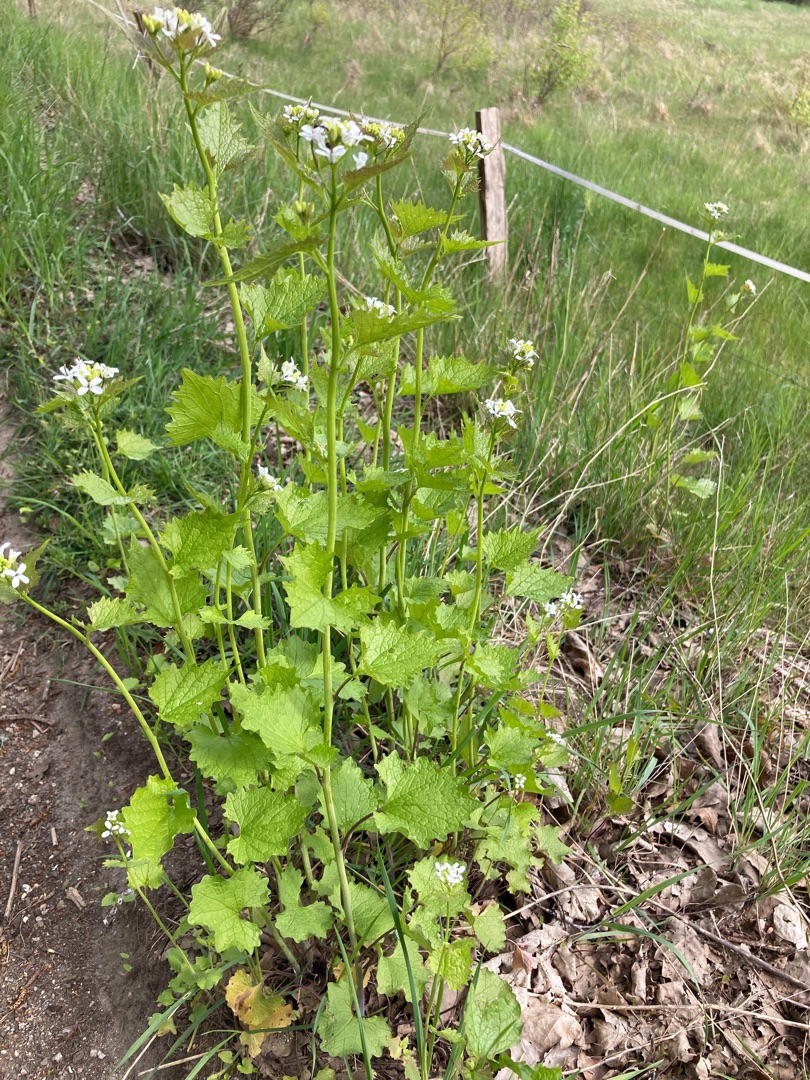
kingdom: Plantae
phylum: Tracheophyta
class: Magnoliopsida
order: Brassicales
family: Brassicaceae
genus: Alliaria
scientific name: Alliaria petiolata
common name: Løgkarse
